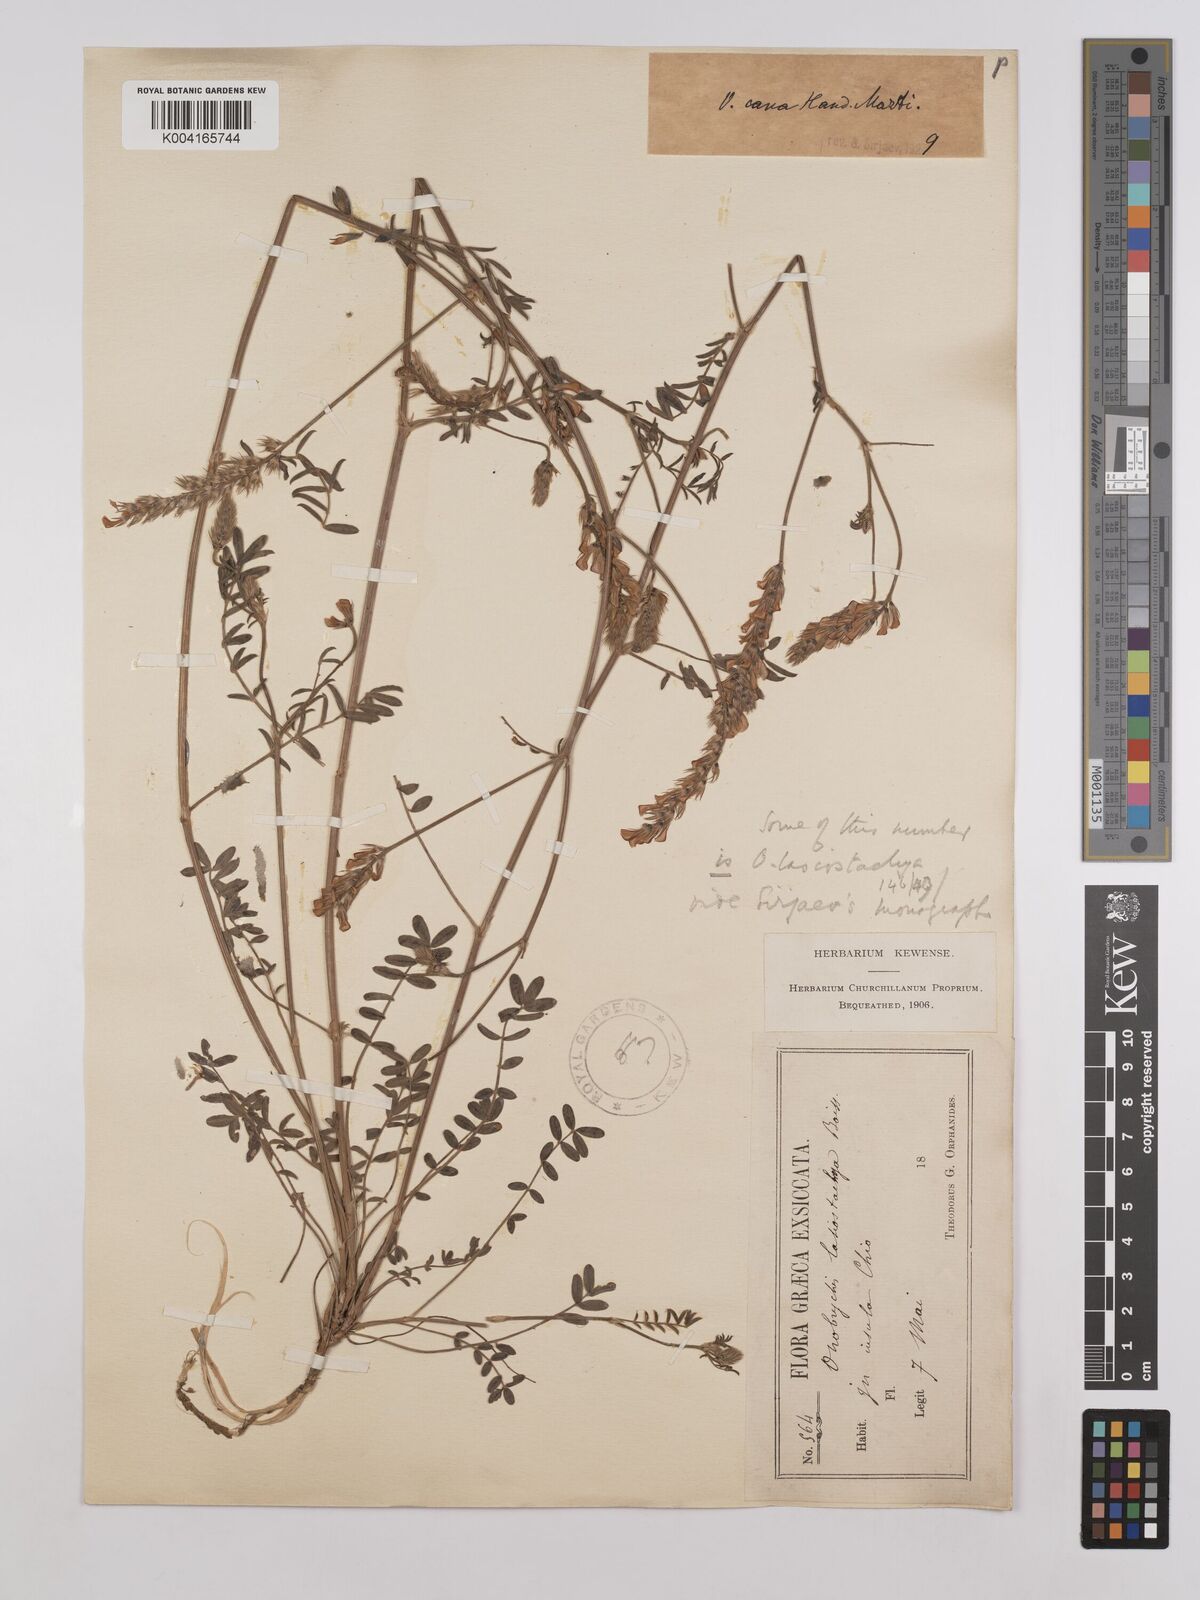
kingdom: Plantae
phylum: Tracheophyta
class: Magnoliopsida
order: Fabales
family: Fabaceae
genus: Onobrychis
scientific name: Onobrychis arenaria
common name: Sand esparcet
